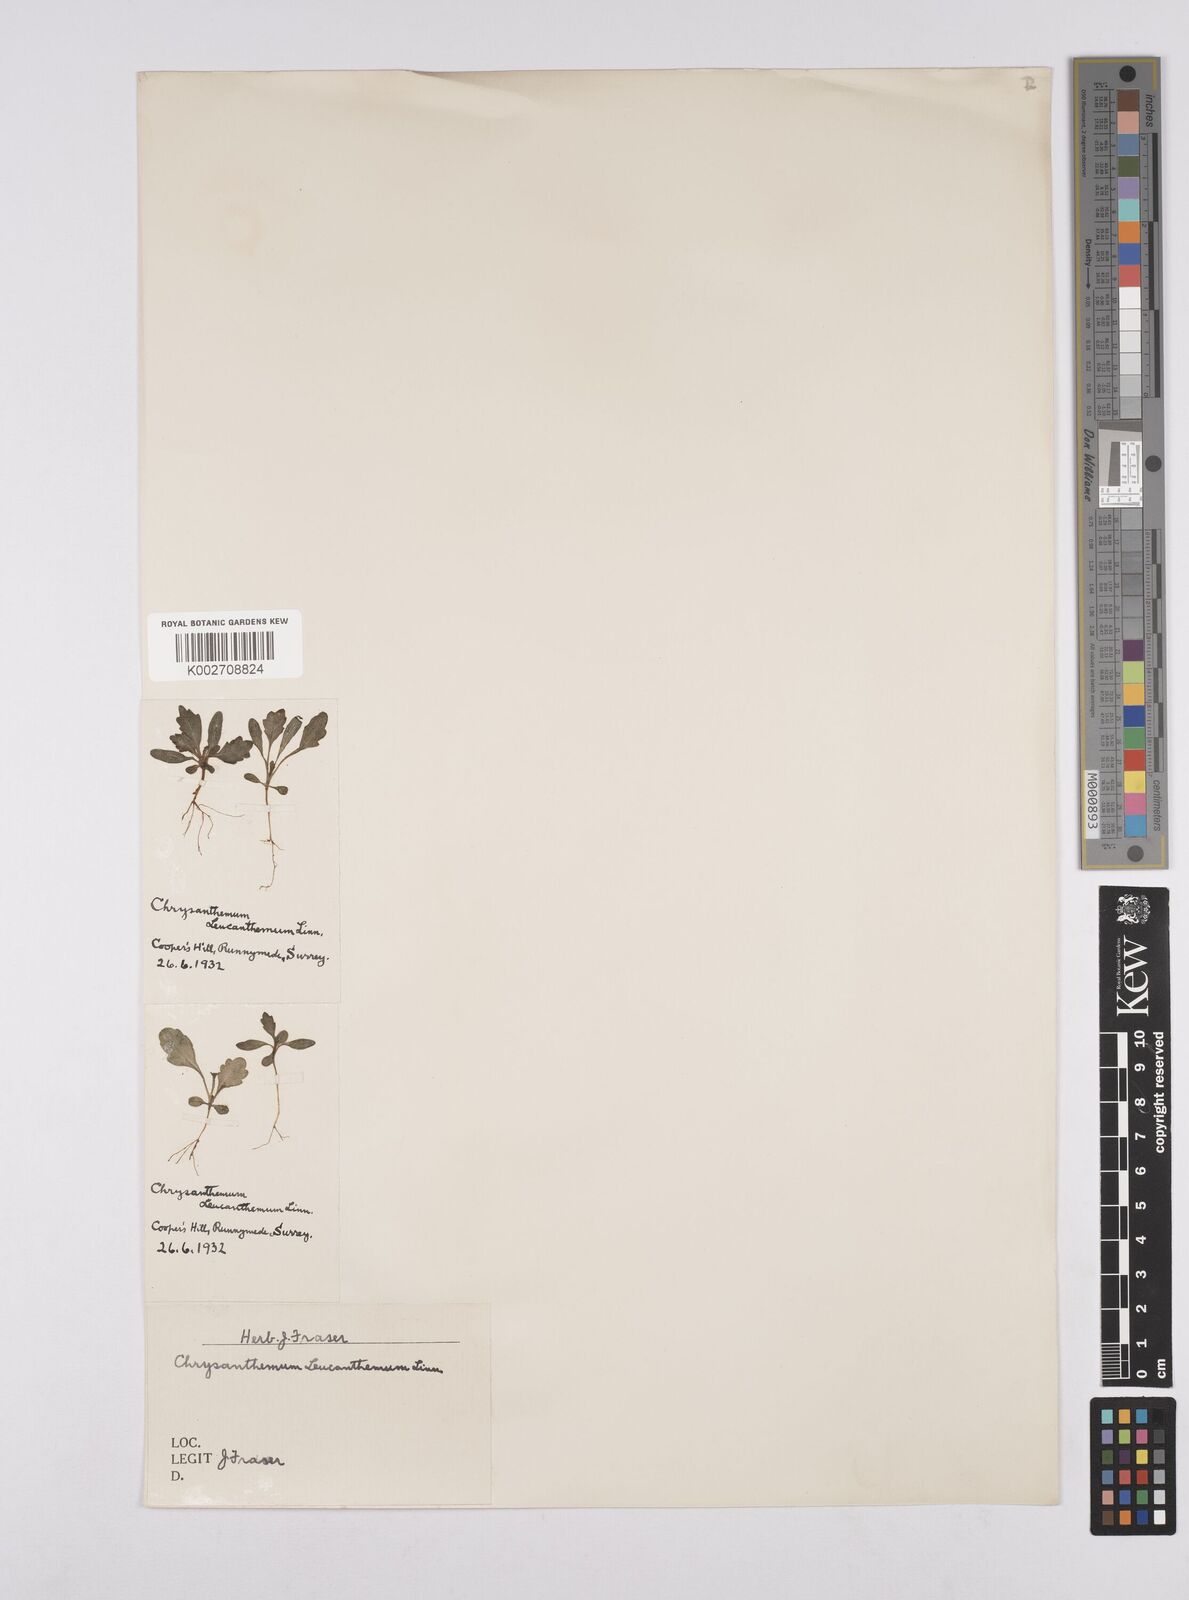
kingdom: Plantae
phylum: Tracheophyta
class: Magnoliopsida
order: Asterales
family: Asteraceae
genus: Leucanthemum
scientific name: Leucanthemum
